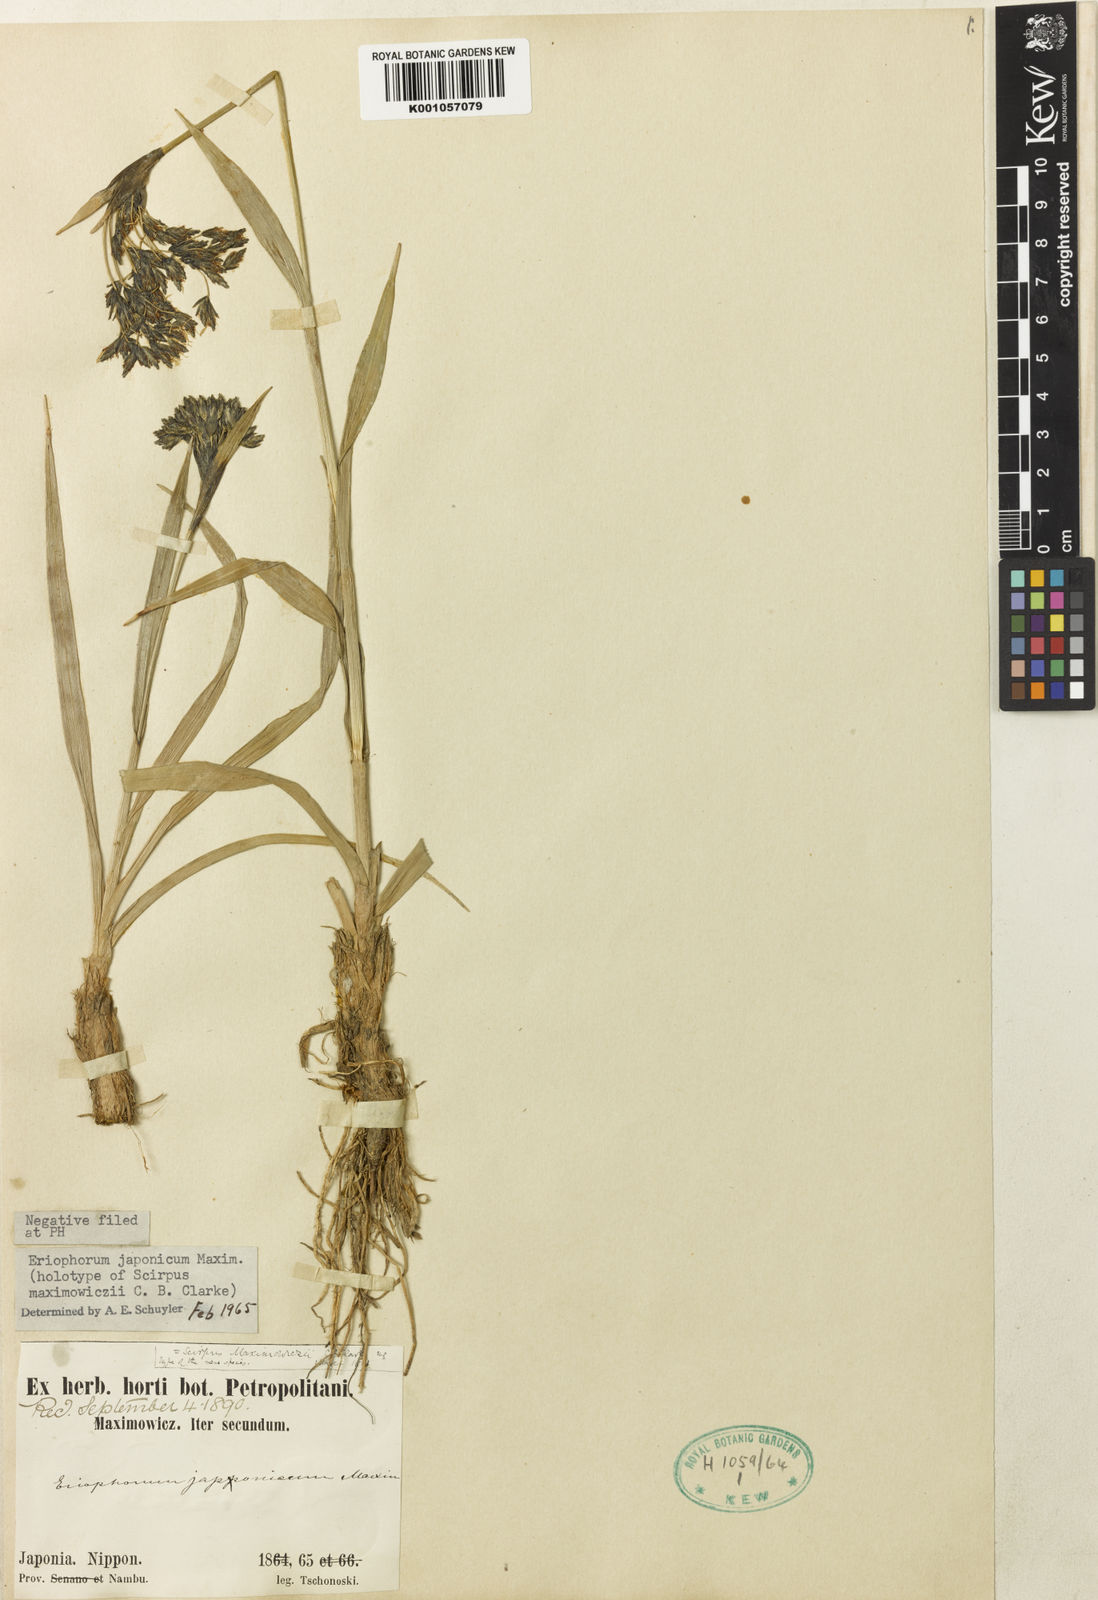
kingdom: Plantae
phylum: Tracheophyta
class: Liliopsida
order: Poales
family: Cyperaceae
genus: Scirpus
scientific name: Scirpus maximowiczii
